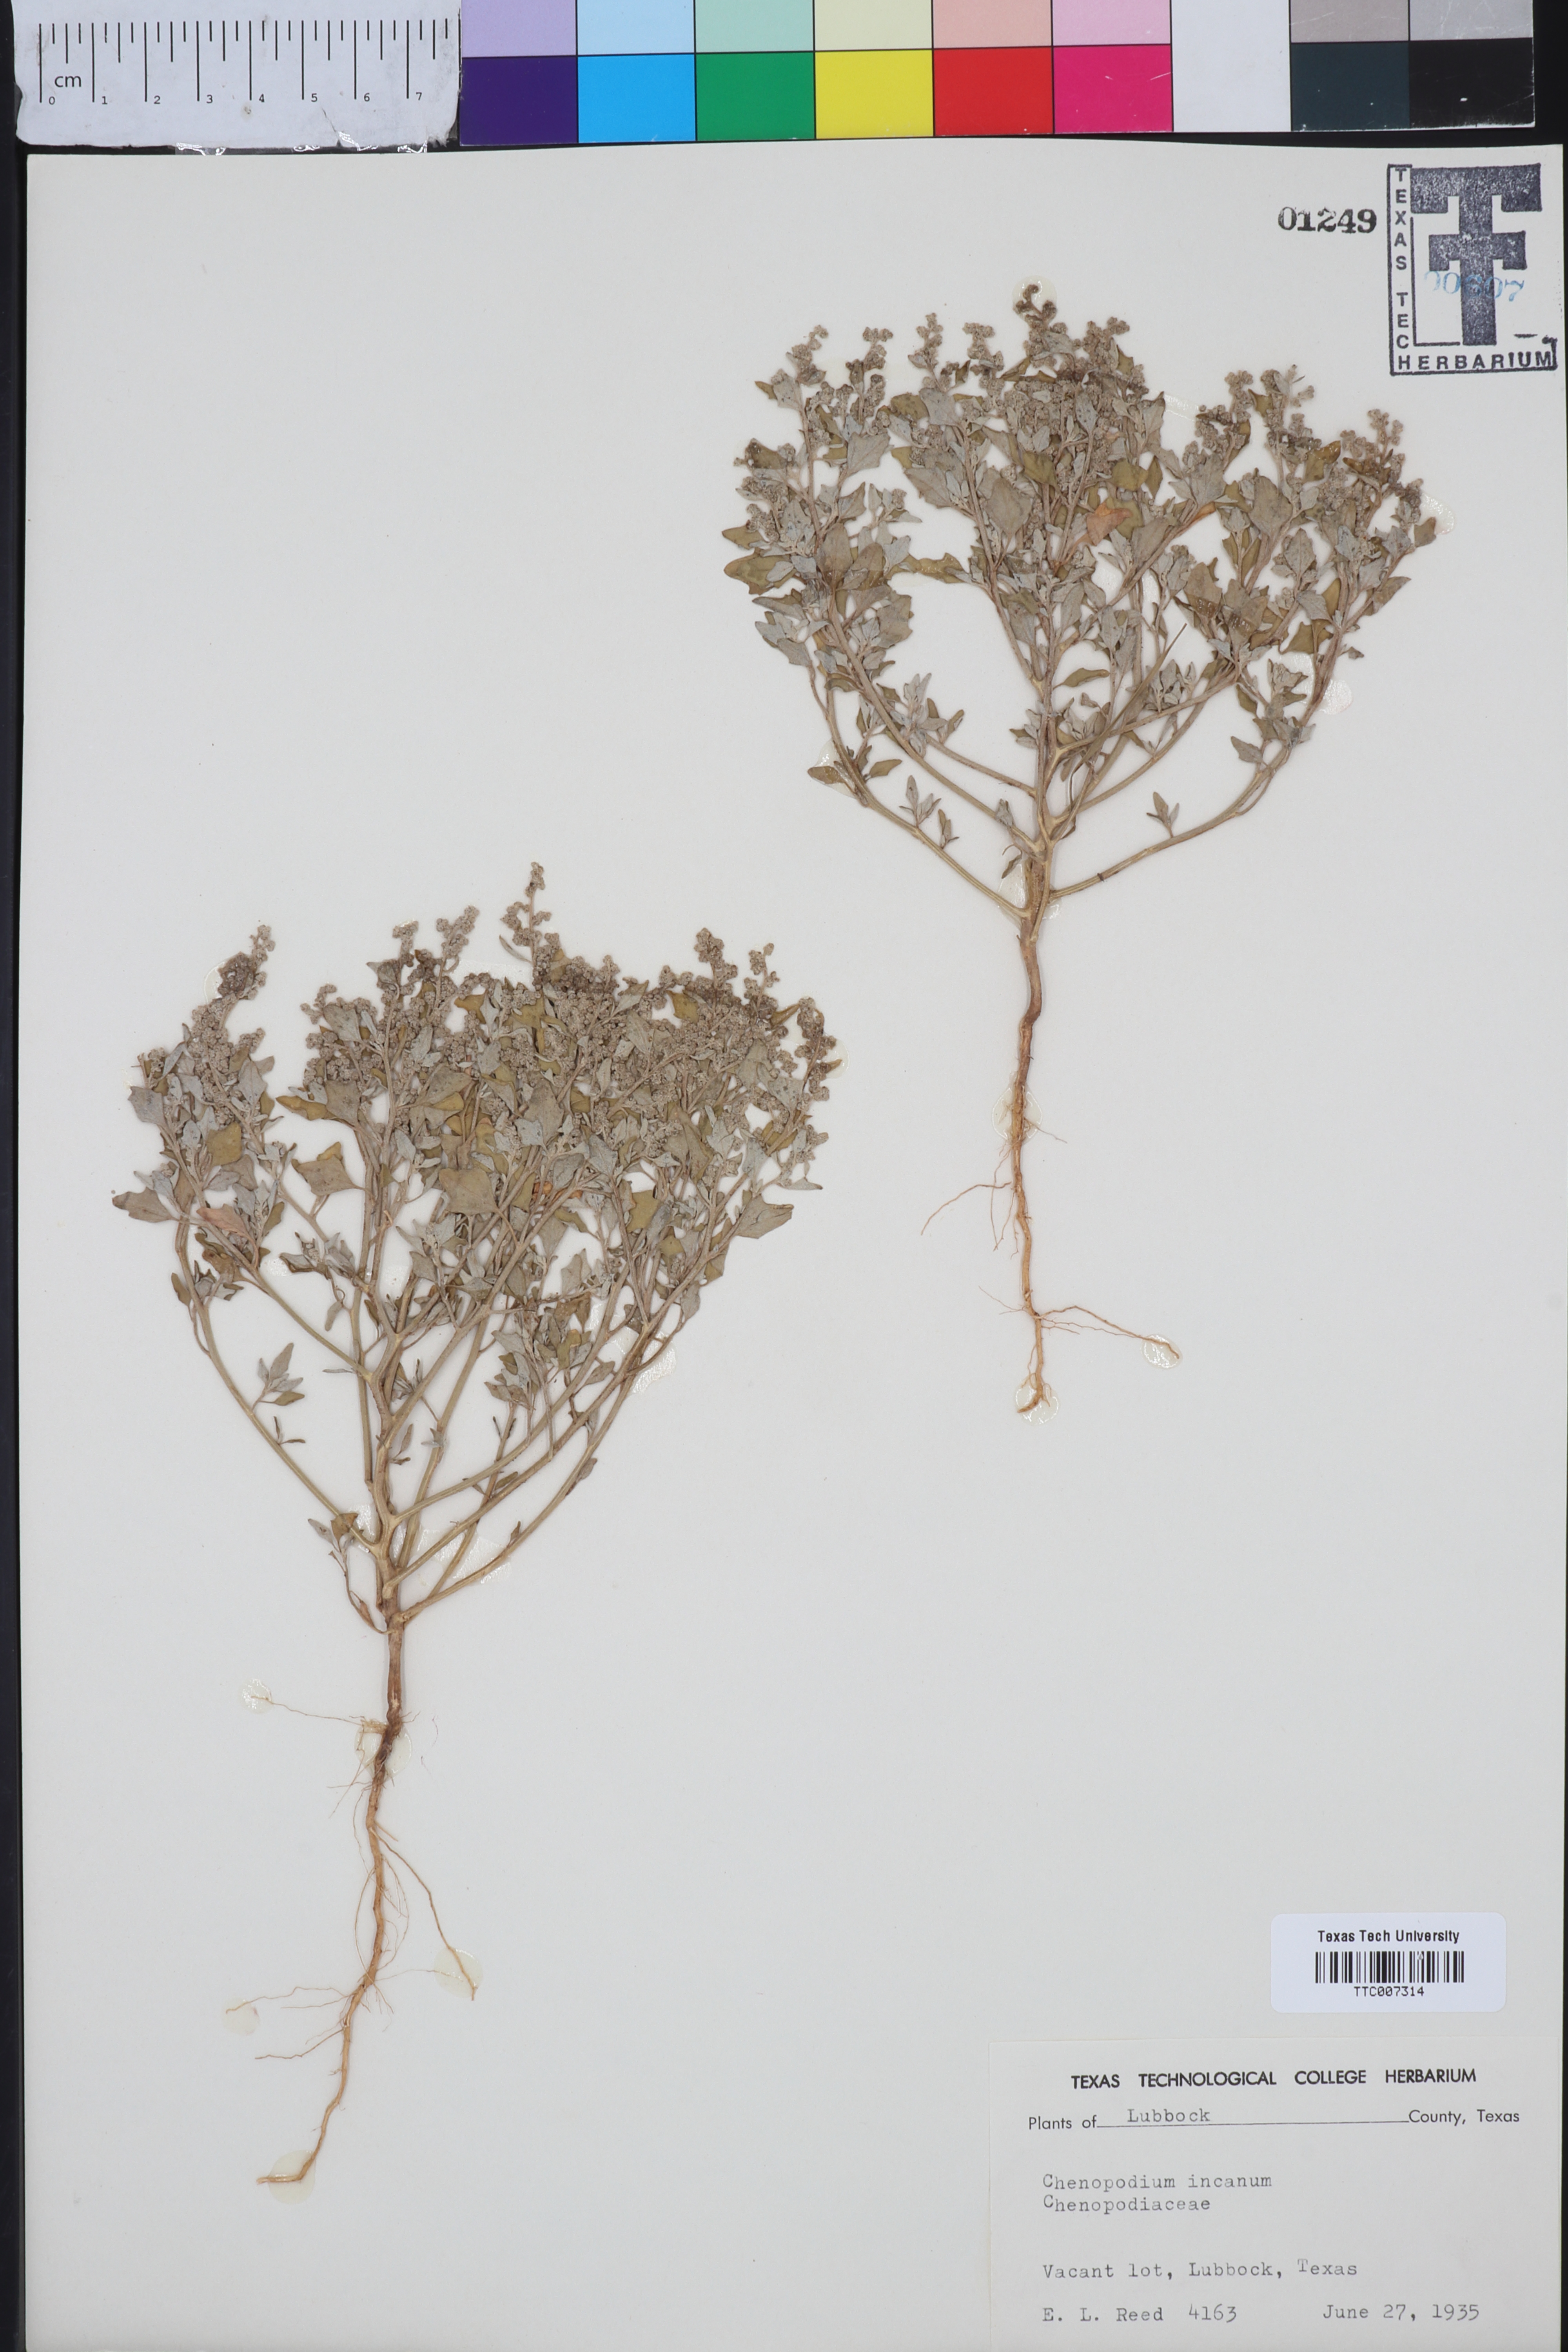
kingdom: Plantae
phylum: Tracheophyta
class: Magnoliopsida
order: Caryophyllales
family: Amaranthaceae
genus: Chenopodium
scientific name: Chenopodium incanum
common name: Hoary goosefoot
